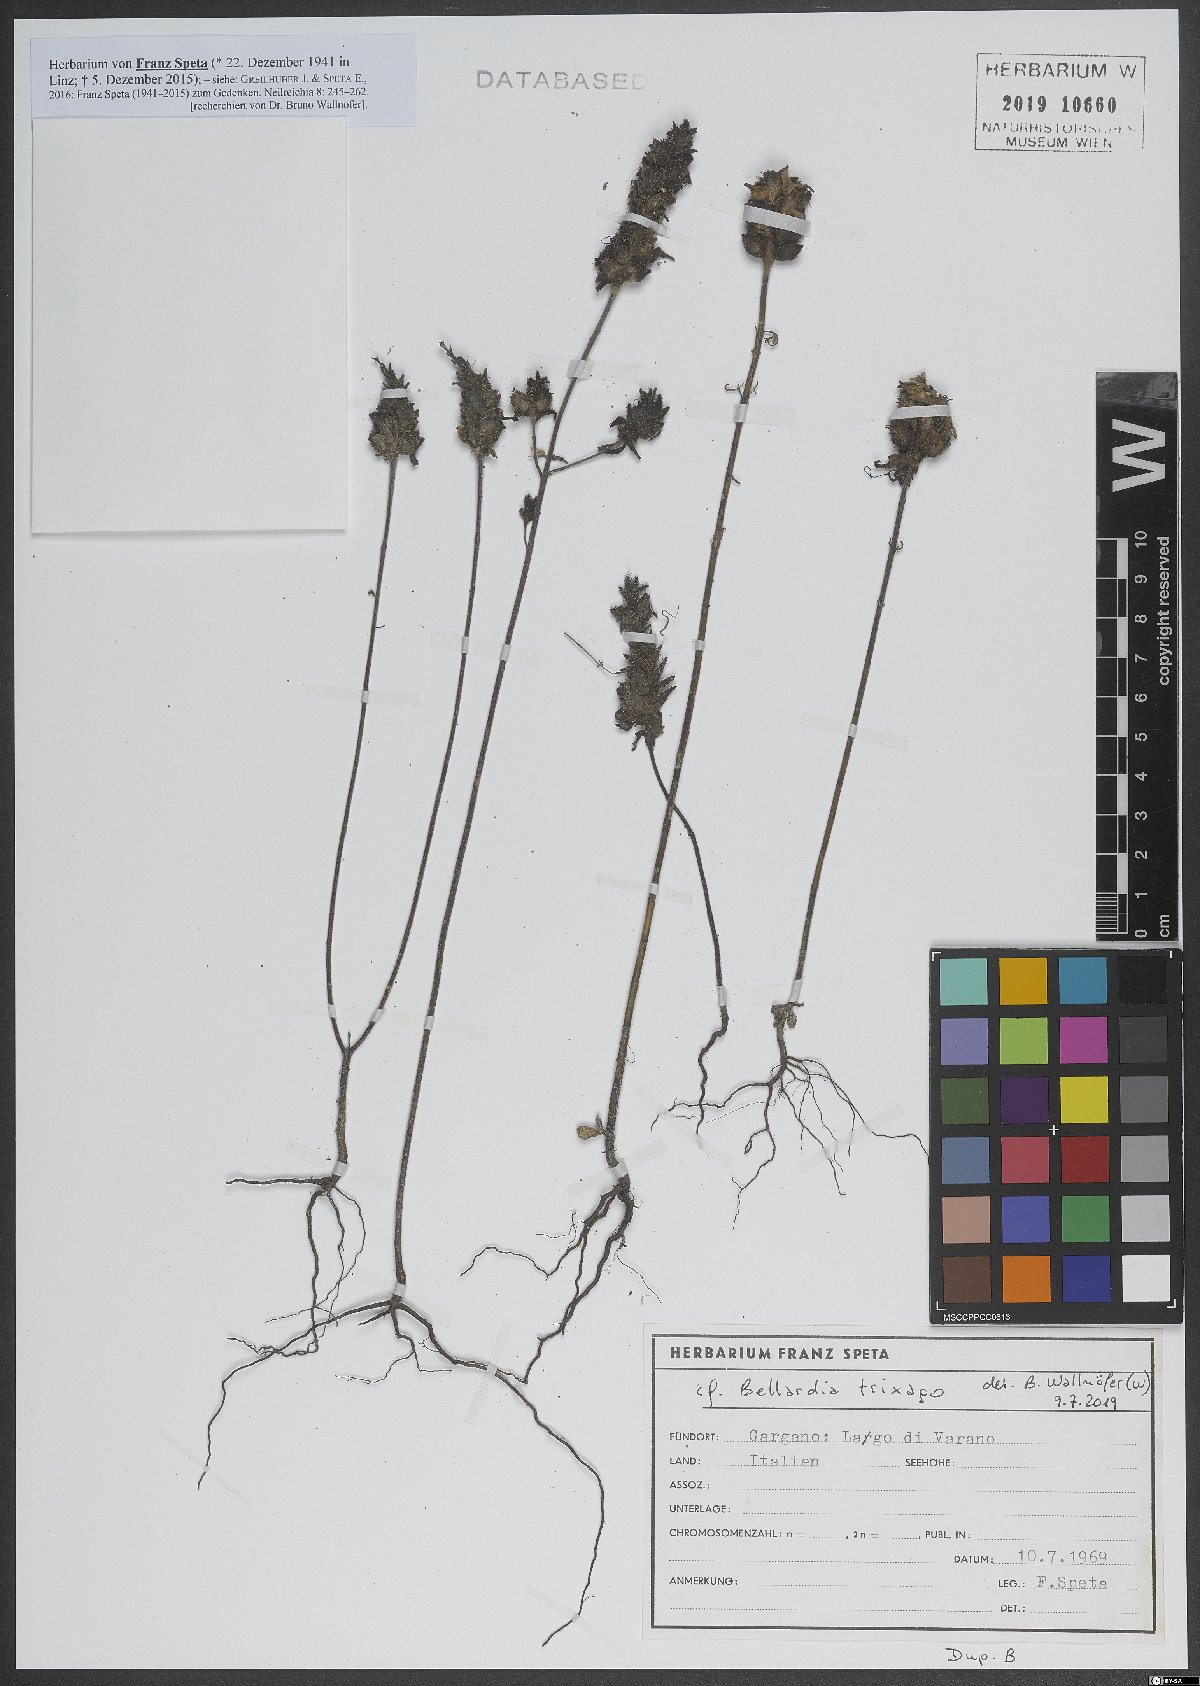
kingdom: Plantae
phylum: Tracheophyta
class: Magnoliopsida
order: Lamiales
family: Orobanchaceae
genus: Bellardia
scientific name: Bellardia trixago
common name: Mediterranean lineseed
